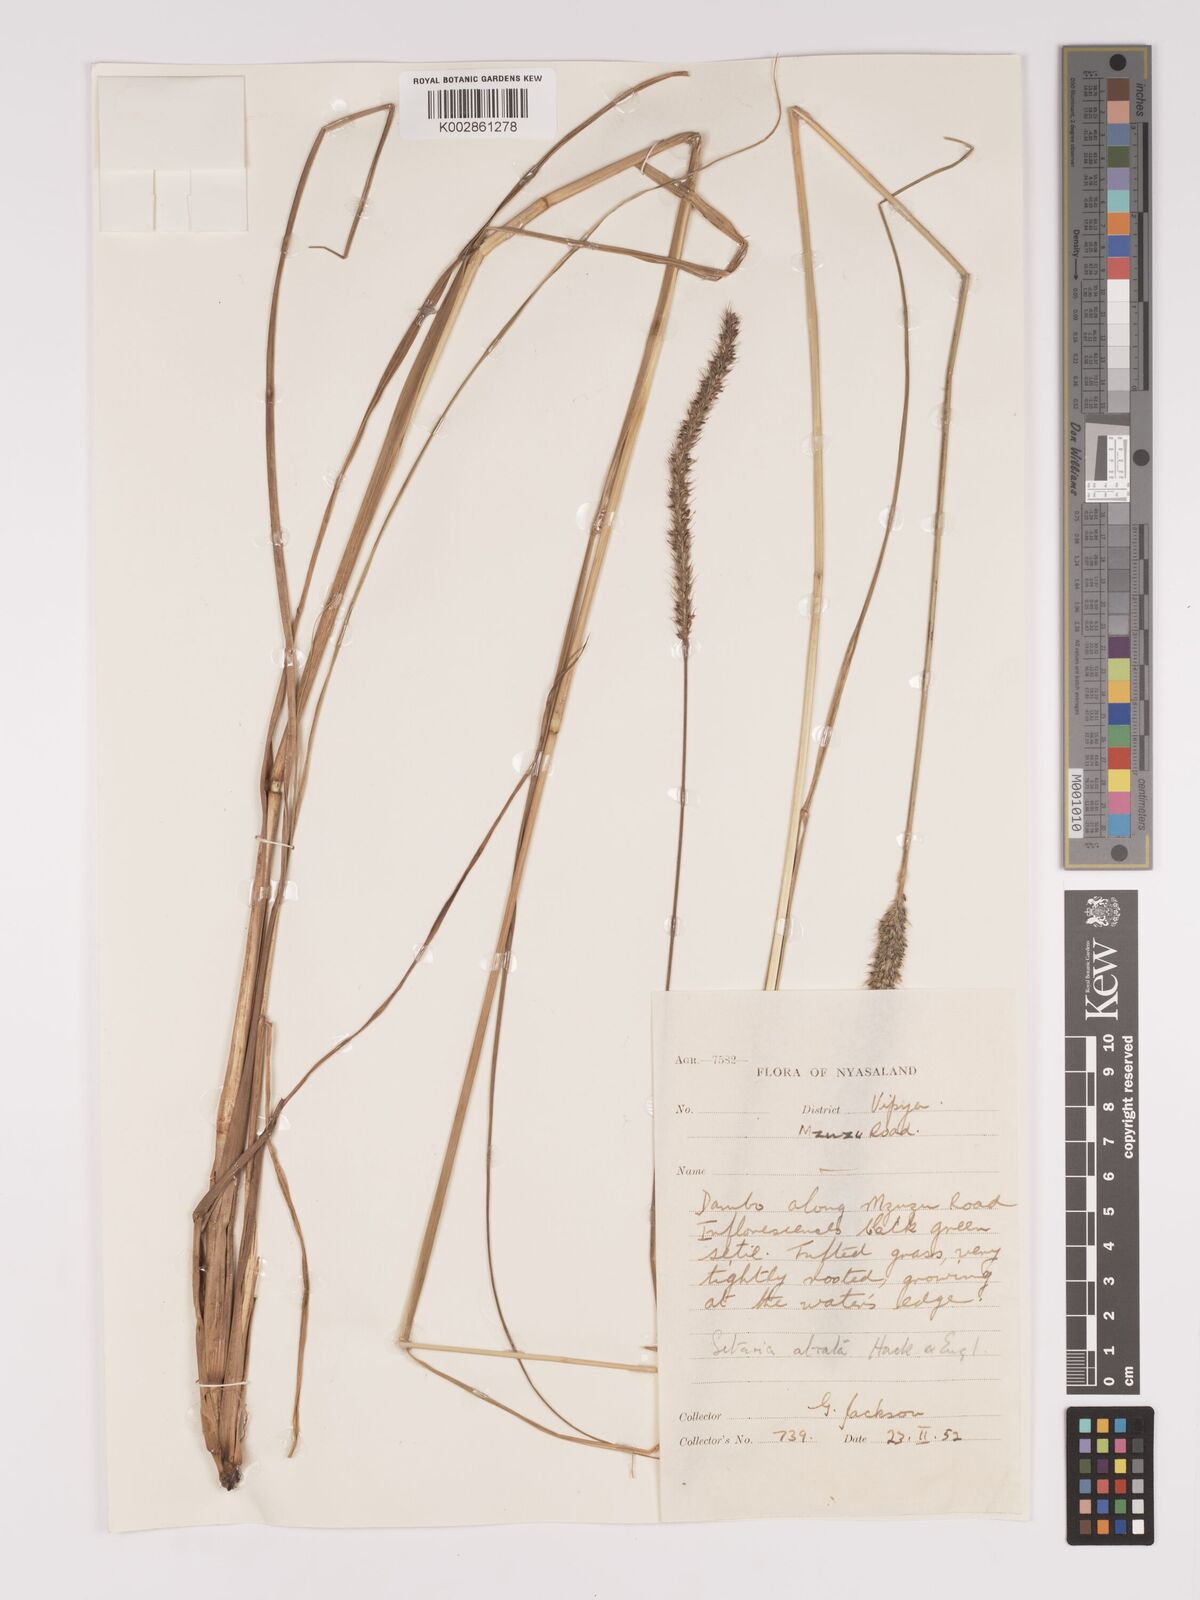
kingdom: Plantae
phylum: Tracheophyta
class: Liliopsida
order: Poales
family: Poaceae
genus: Setaria
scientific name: Setaria atrata
